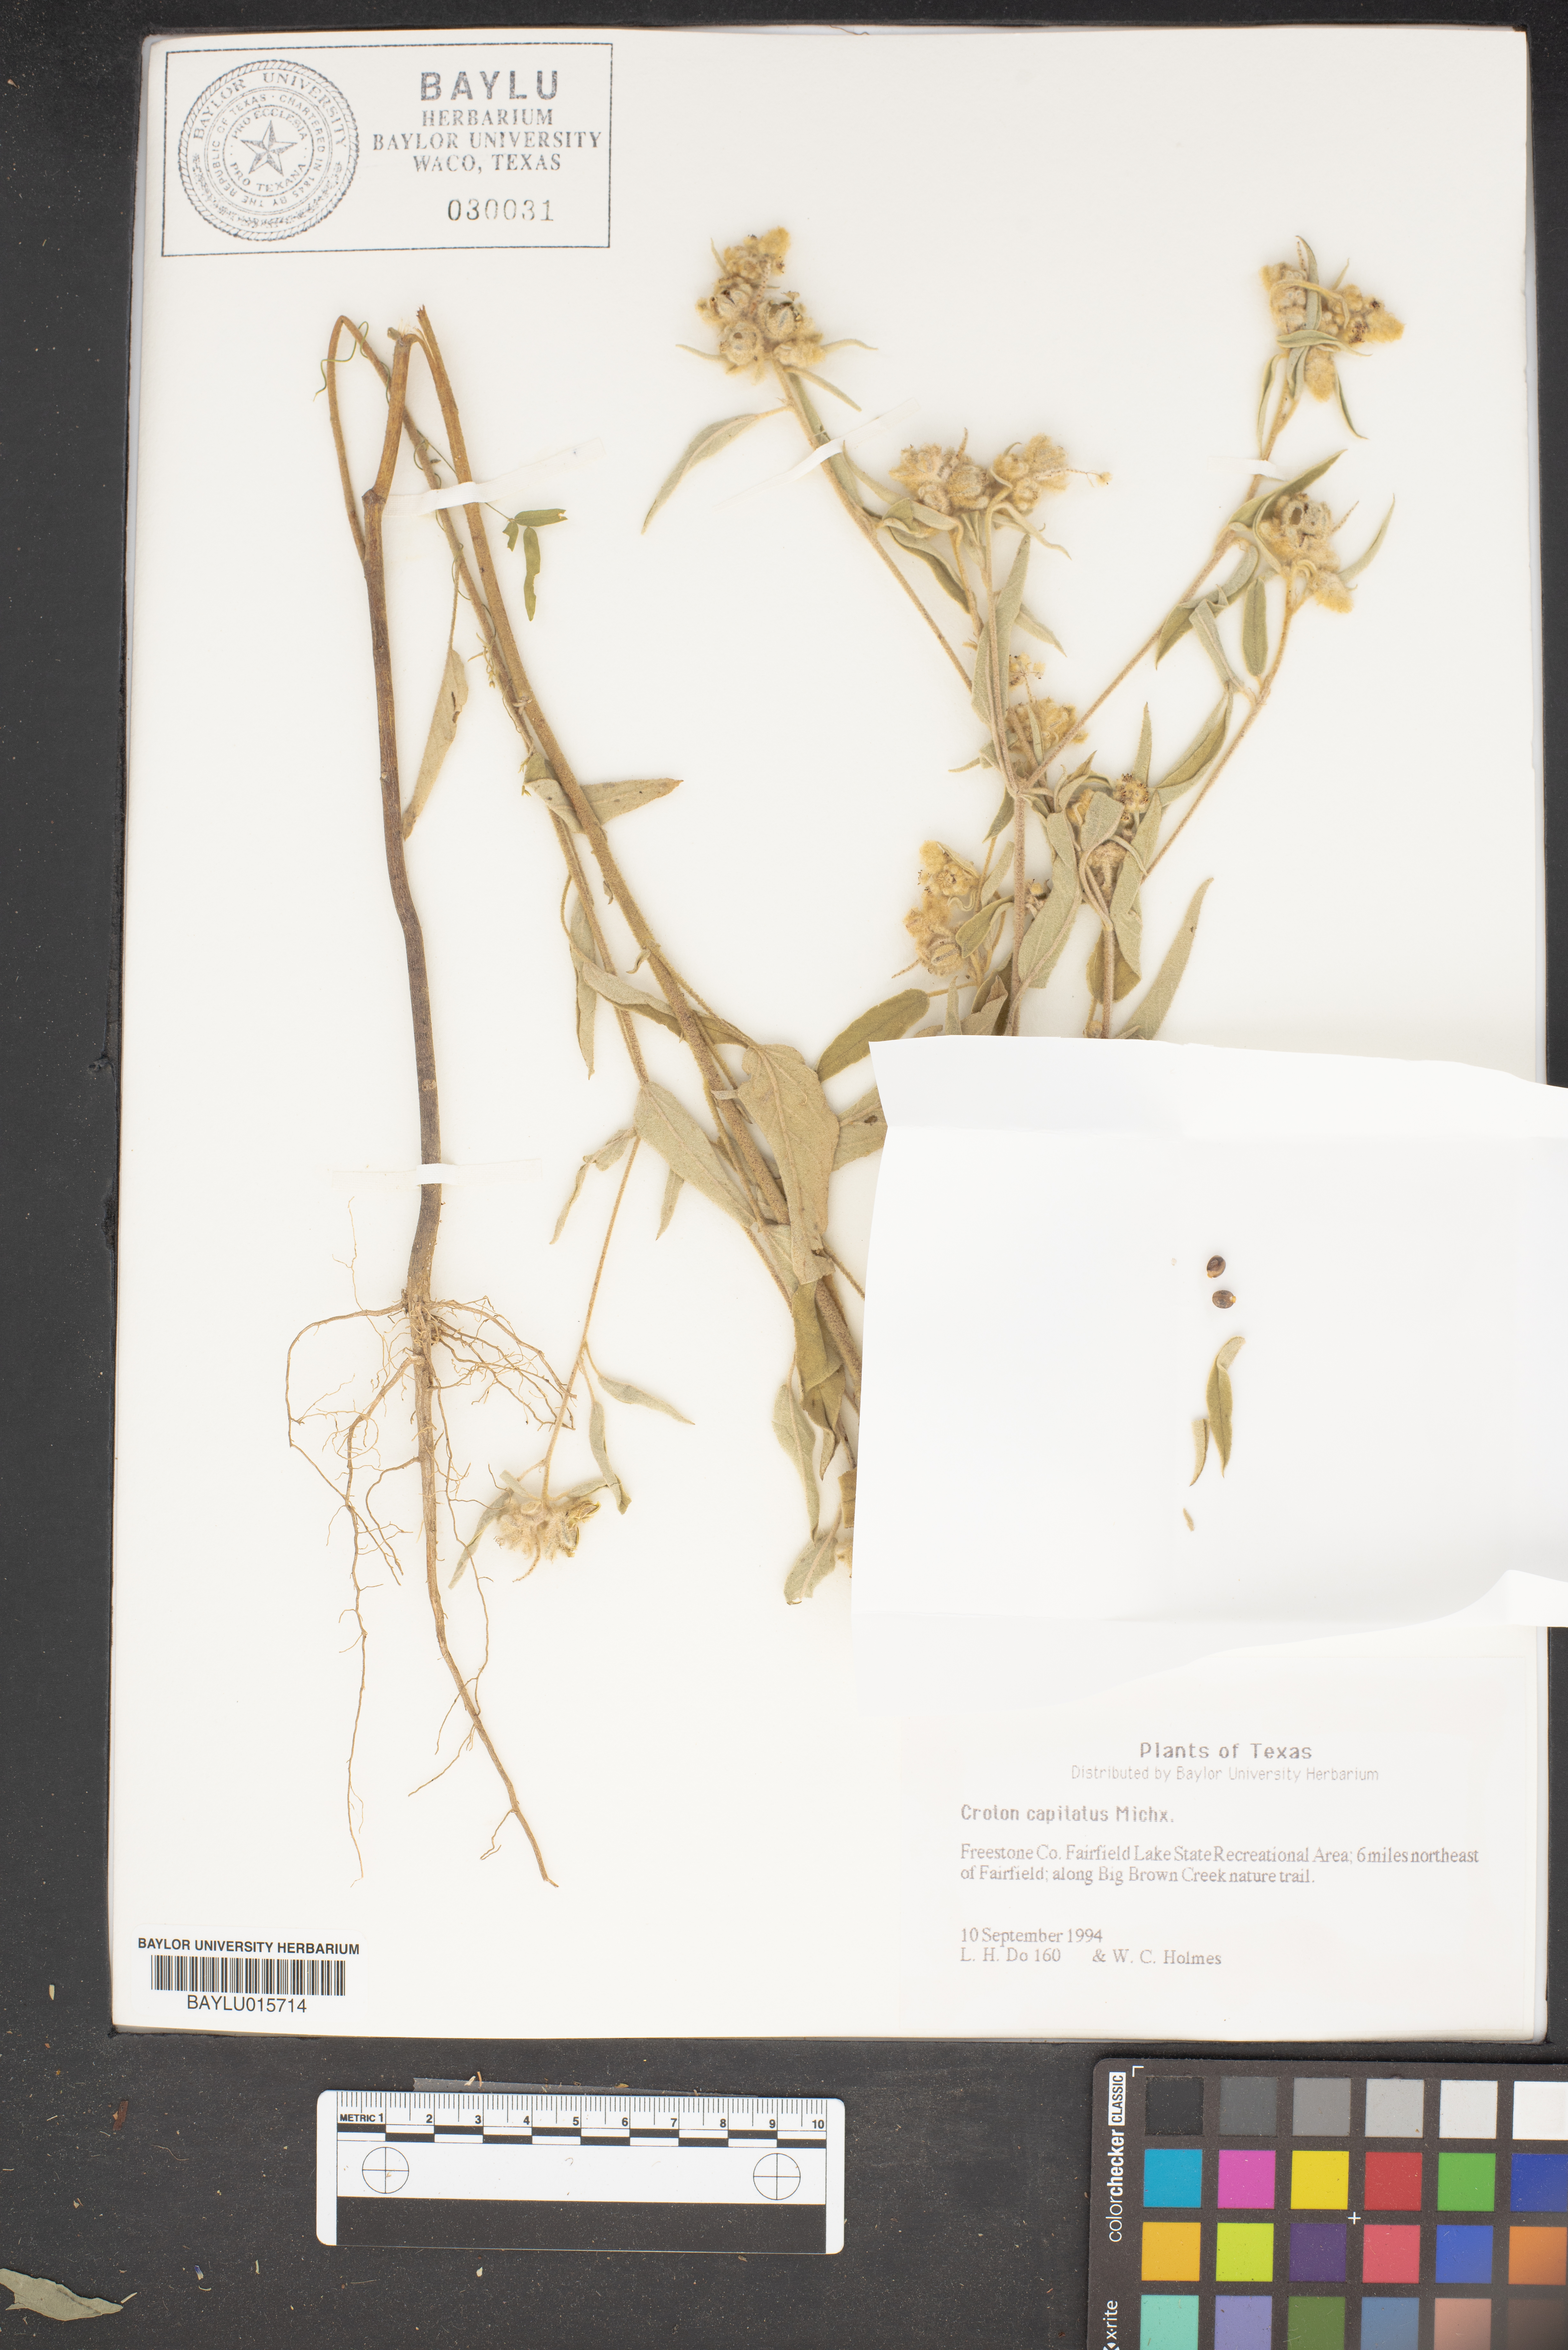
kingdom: Plantae
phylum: Tracheophyta
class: Magnoliopsida
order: Malpighiales
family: Euphorbiaceae
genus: Croton
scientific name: Croton capitatus
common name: Woolly croton
